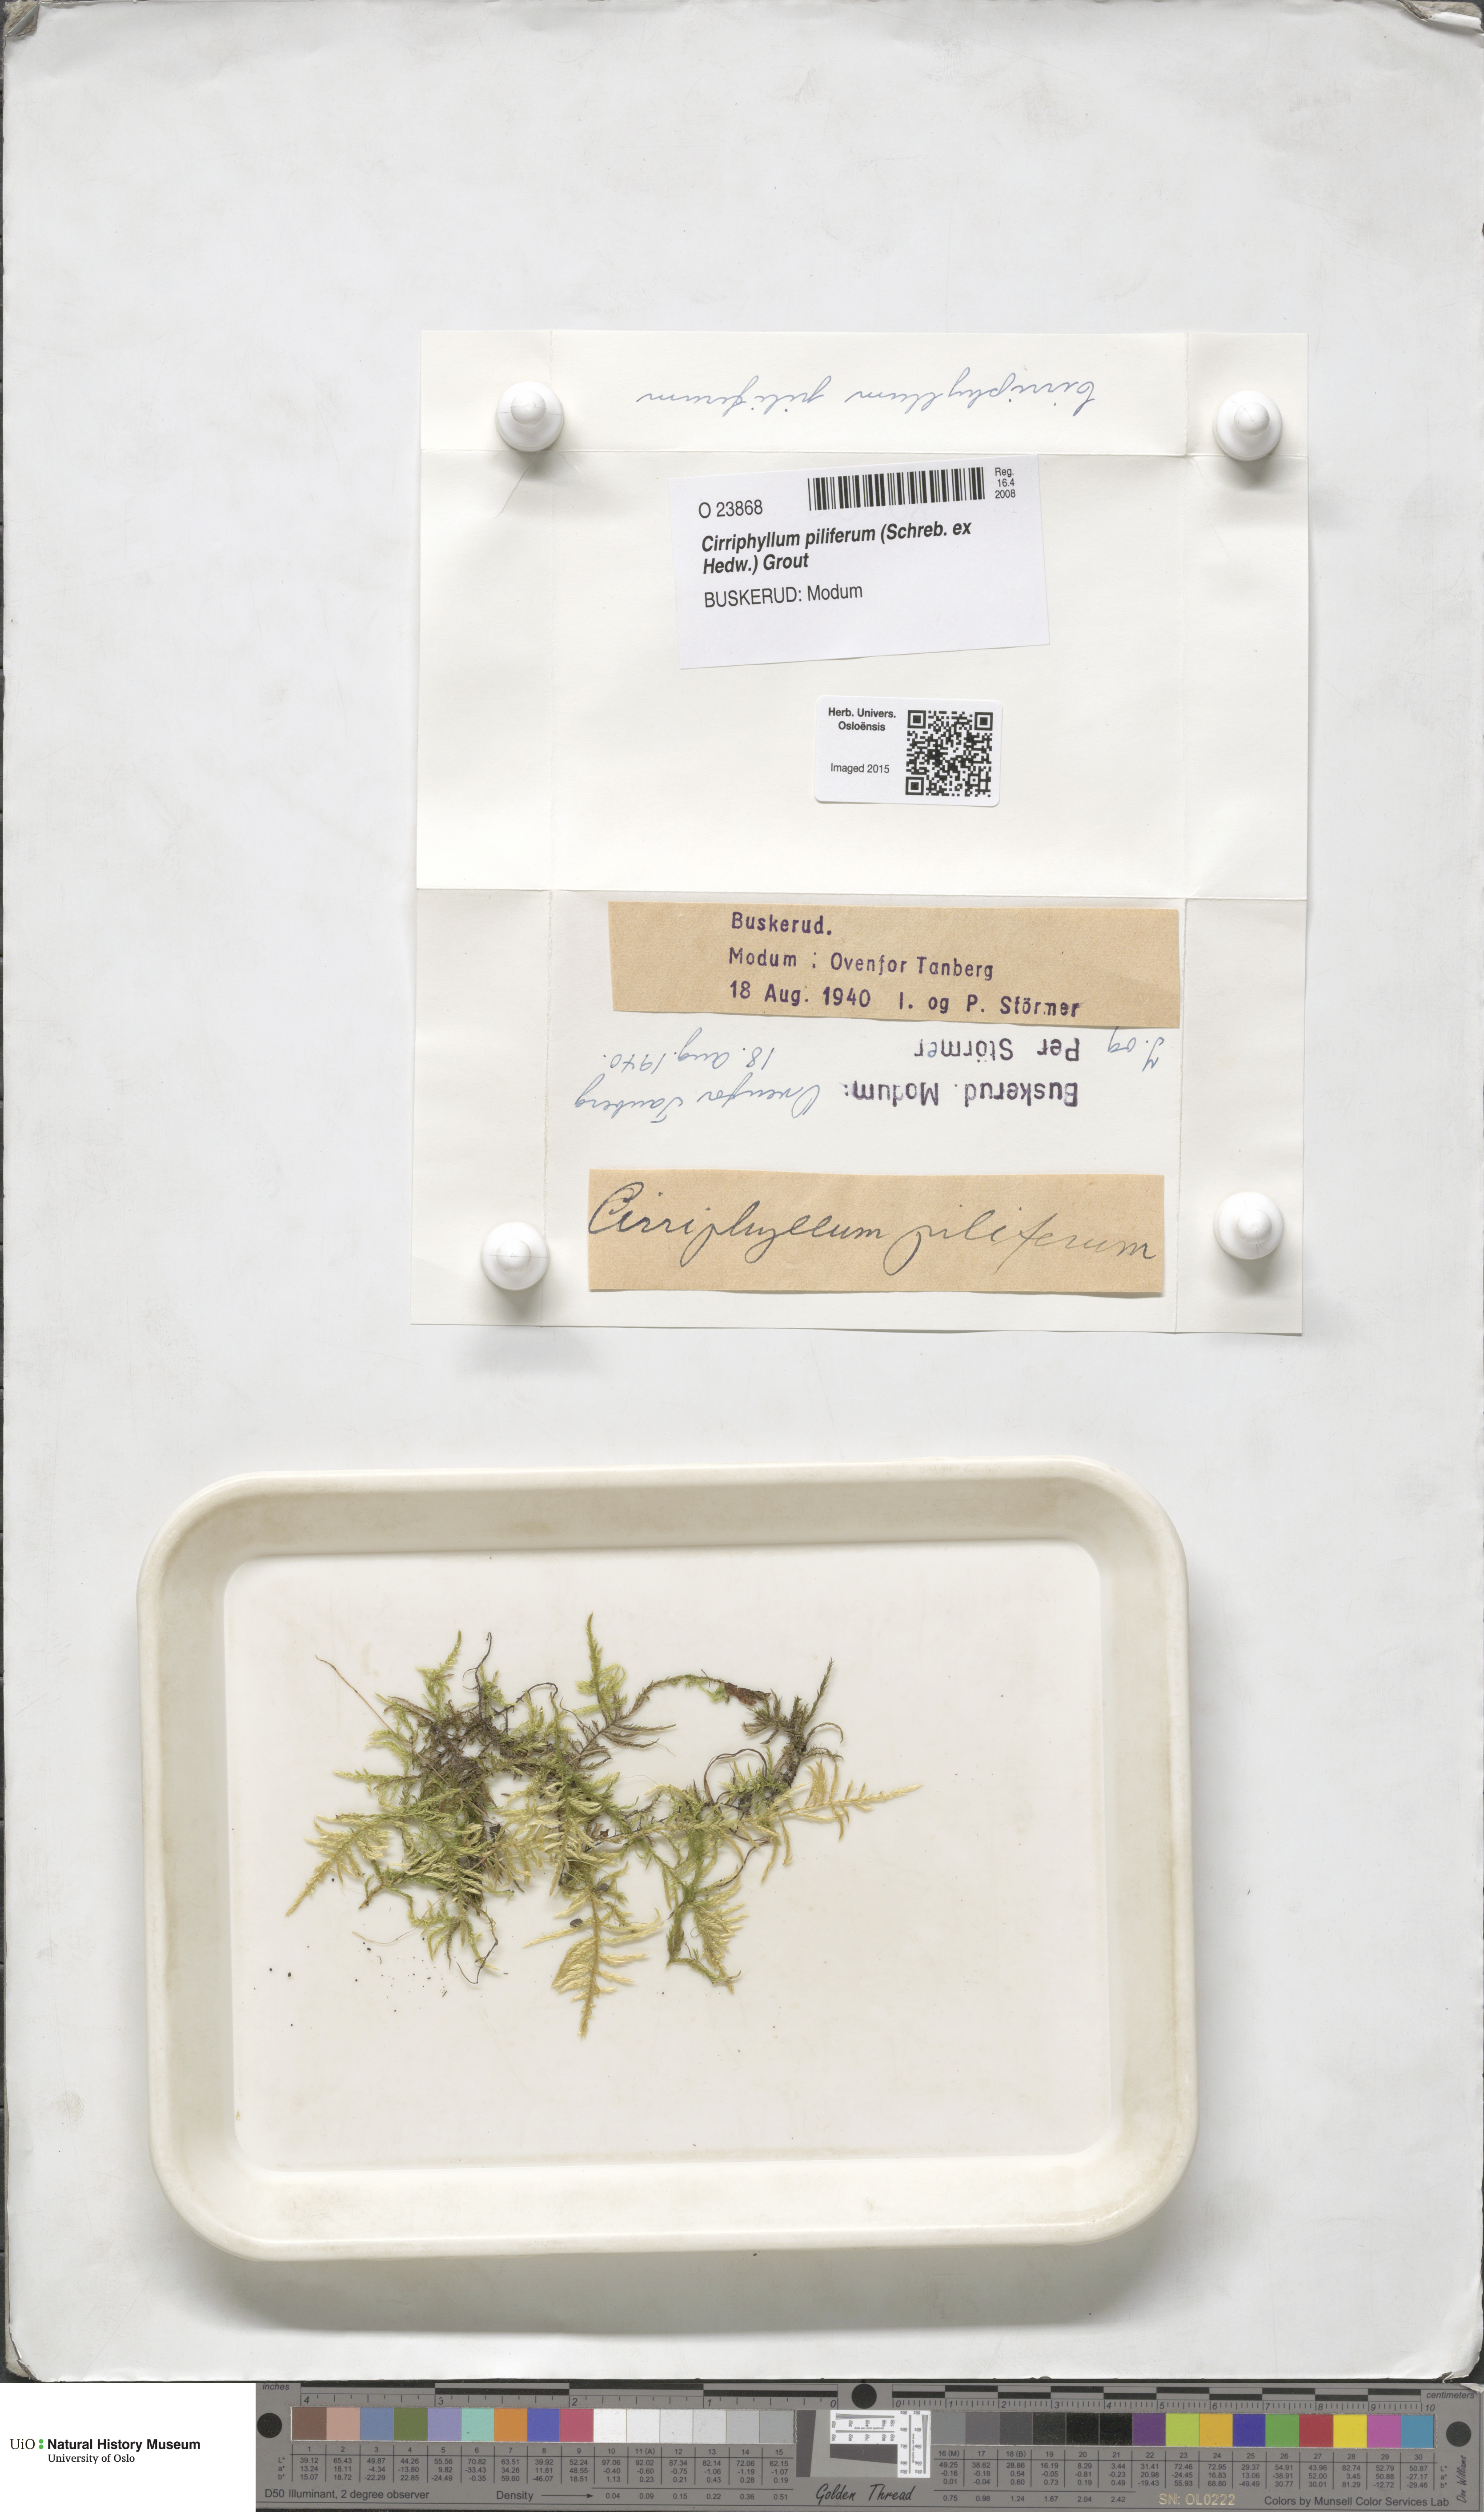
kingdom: Plantae
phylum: Bryophyta
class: Bryopsida
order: Hypnales
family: Brachytheciaceae
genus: Cirriphyllum
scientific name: Cirriphyllum piliferum
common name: Hair-pointed moss
